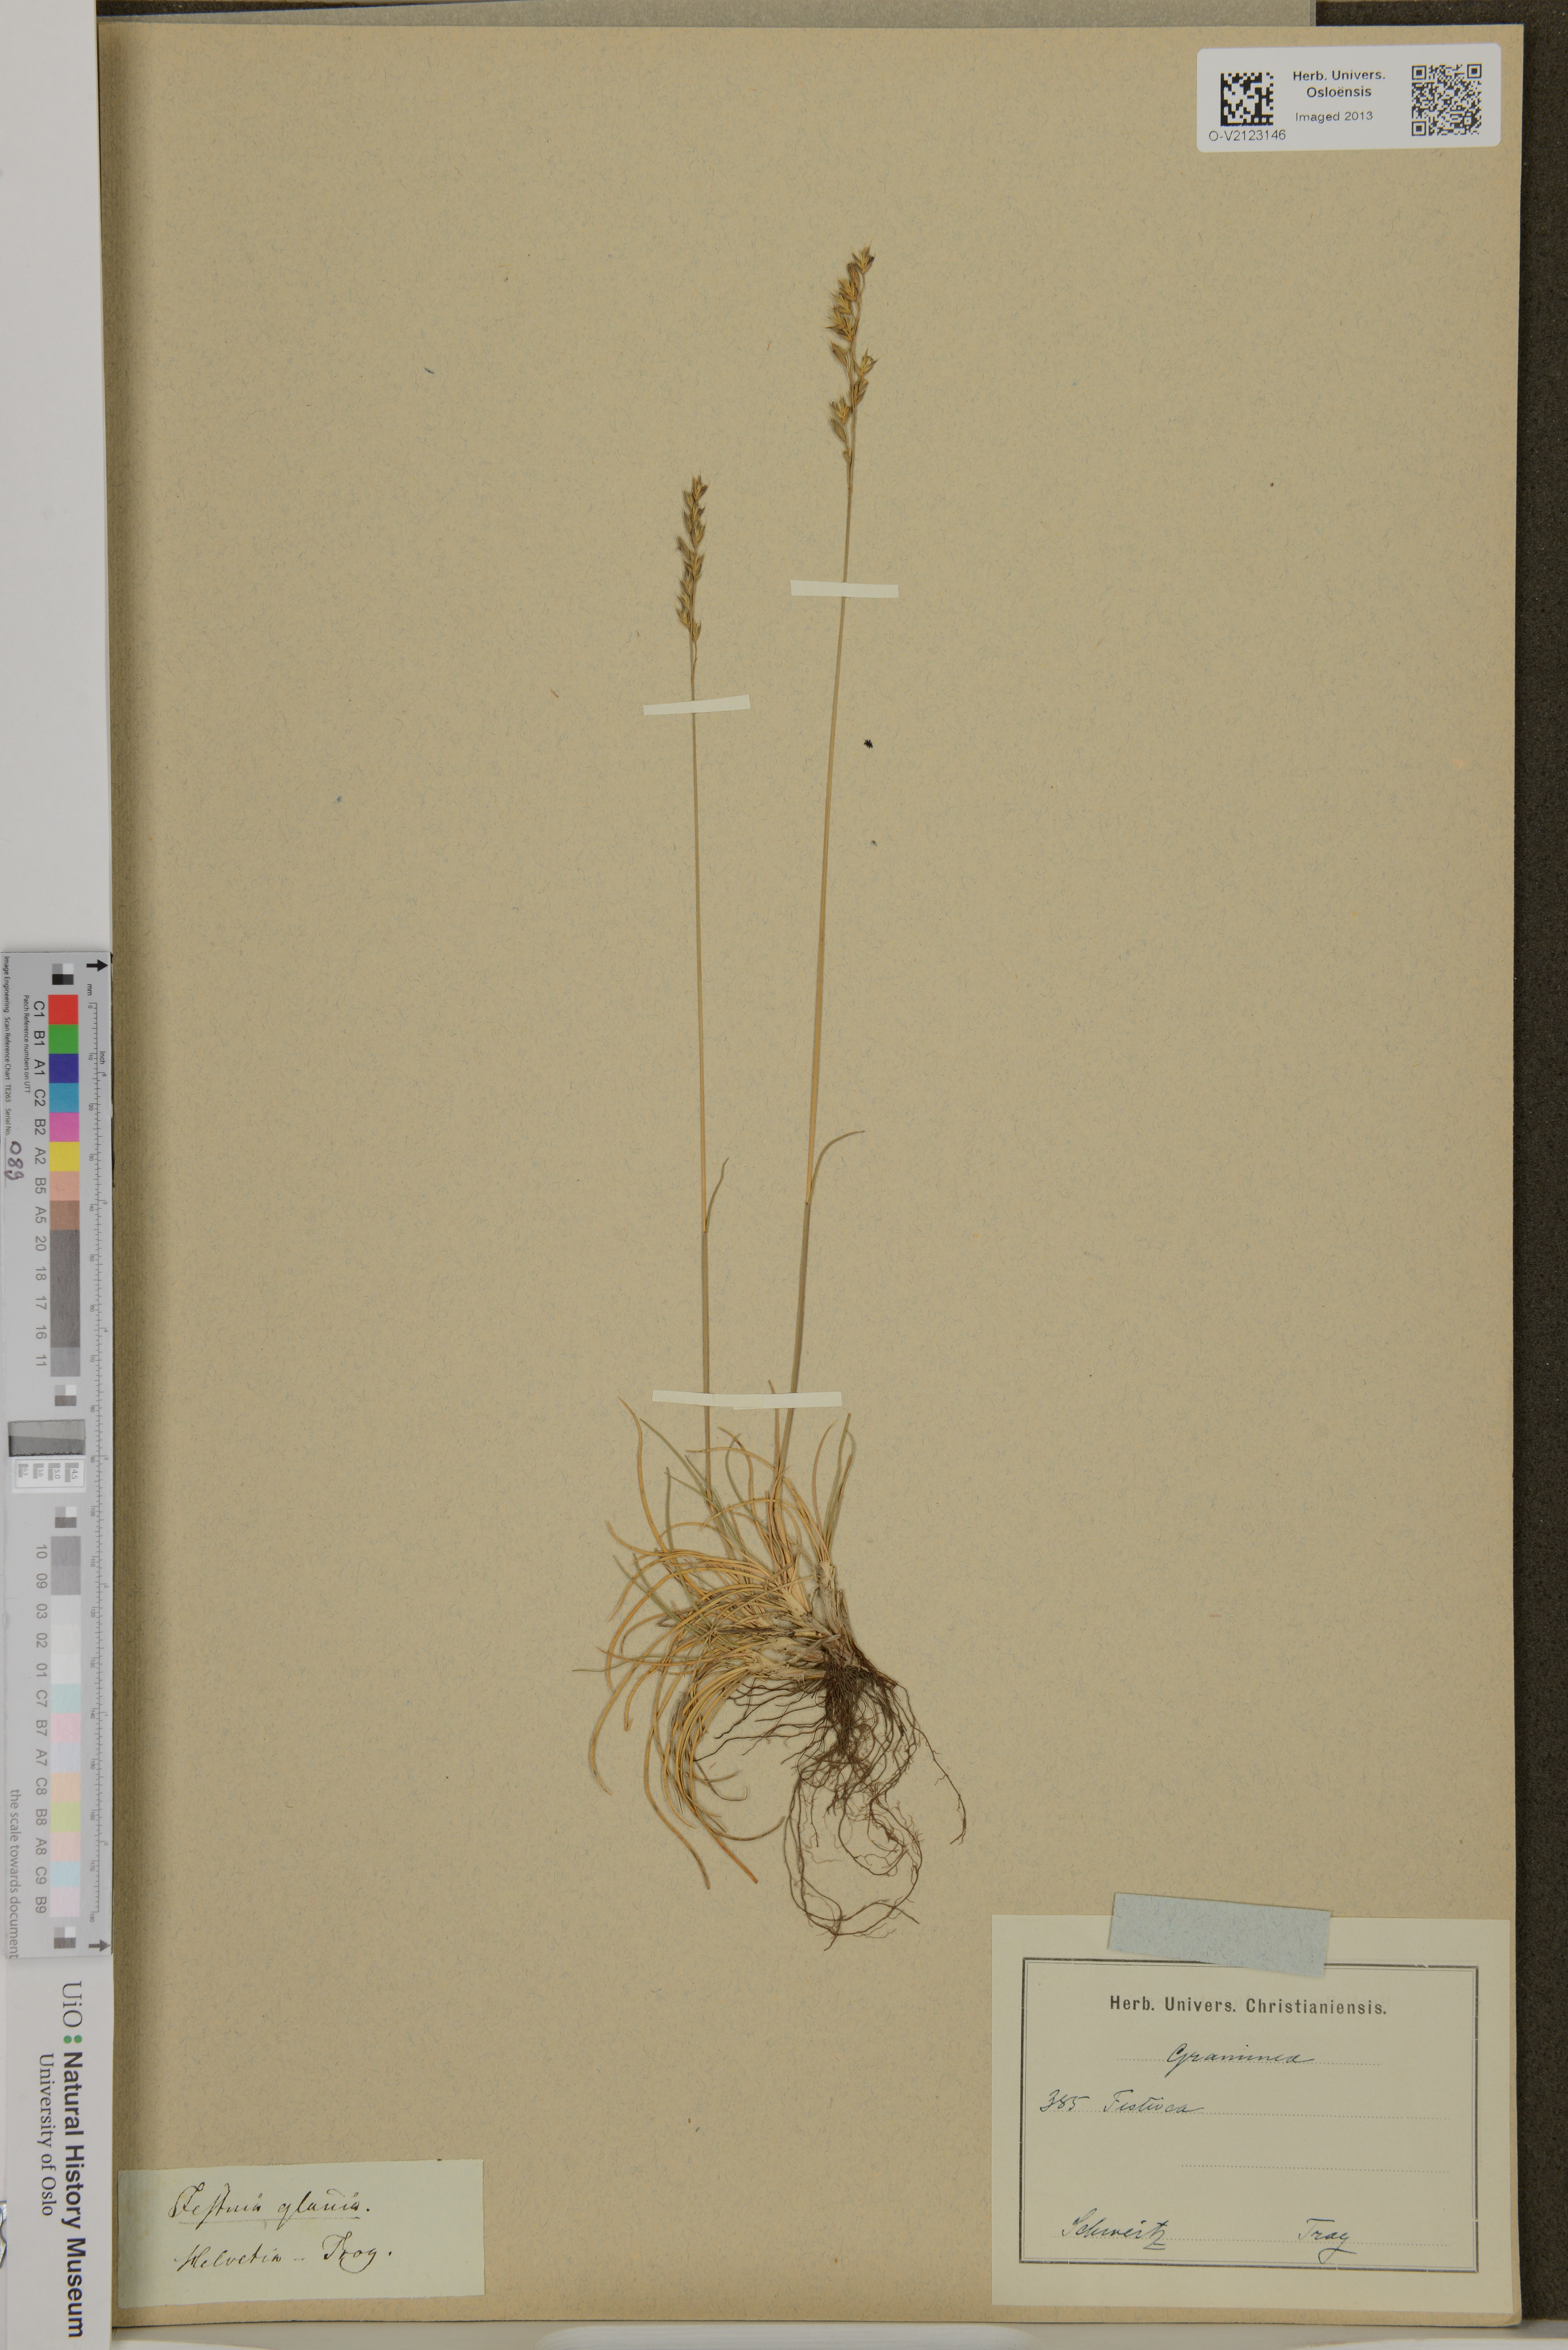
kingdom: Plantae
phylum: Tracheophyta
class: Liliopsida
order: Poales
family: Poaceae
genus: Festuca
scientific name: Festuca beckeri
